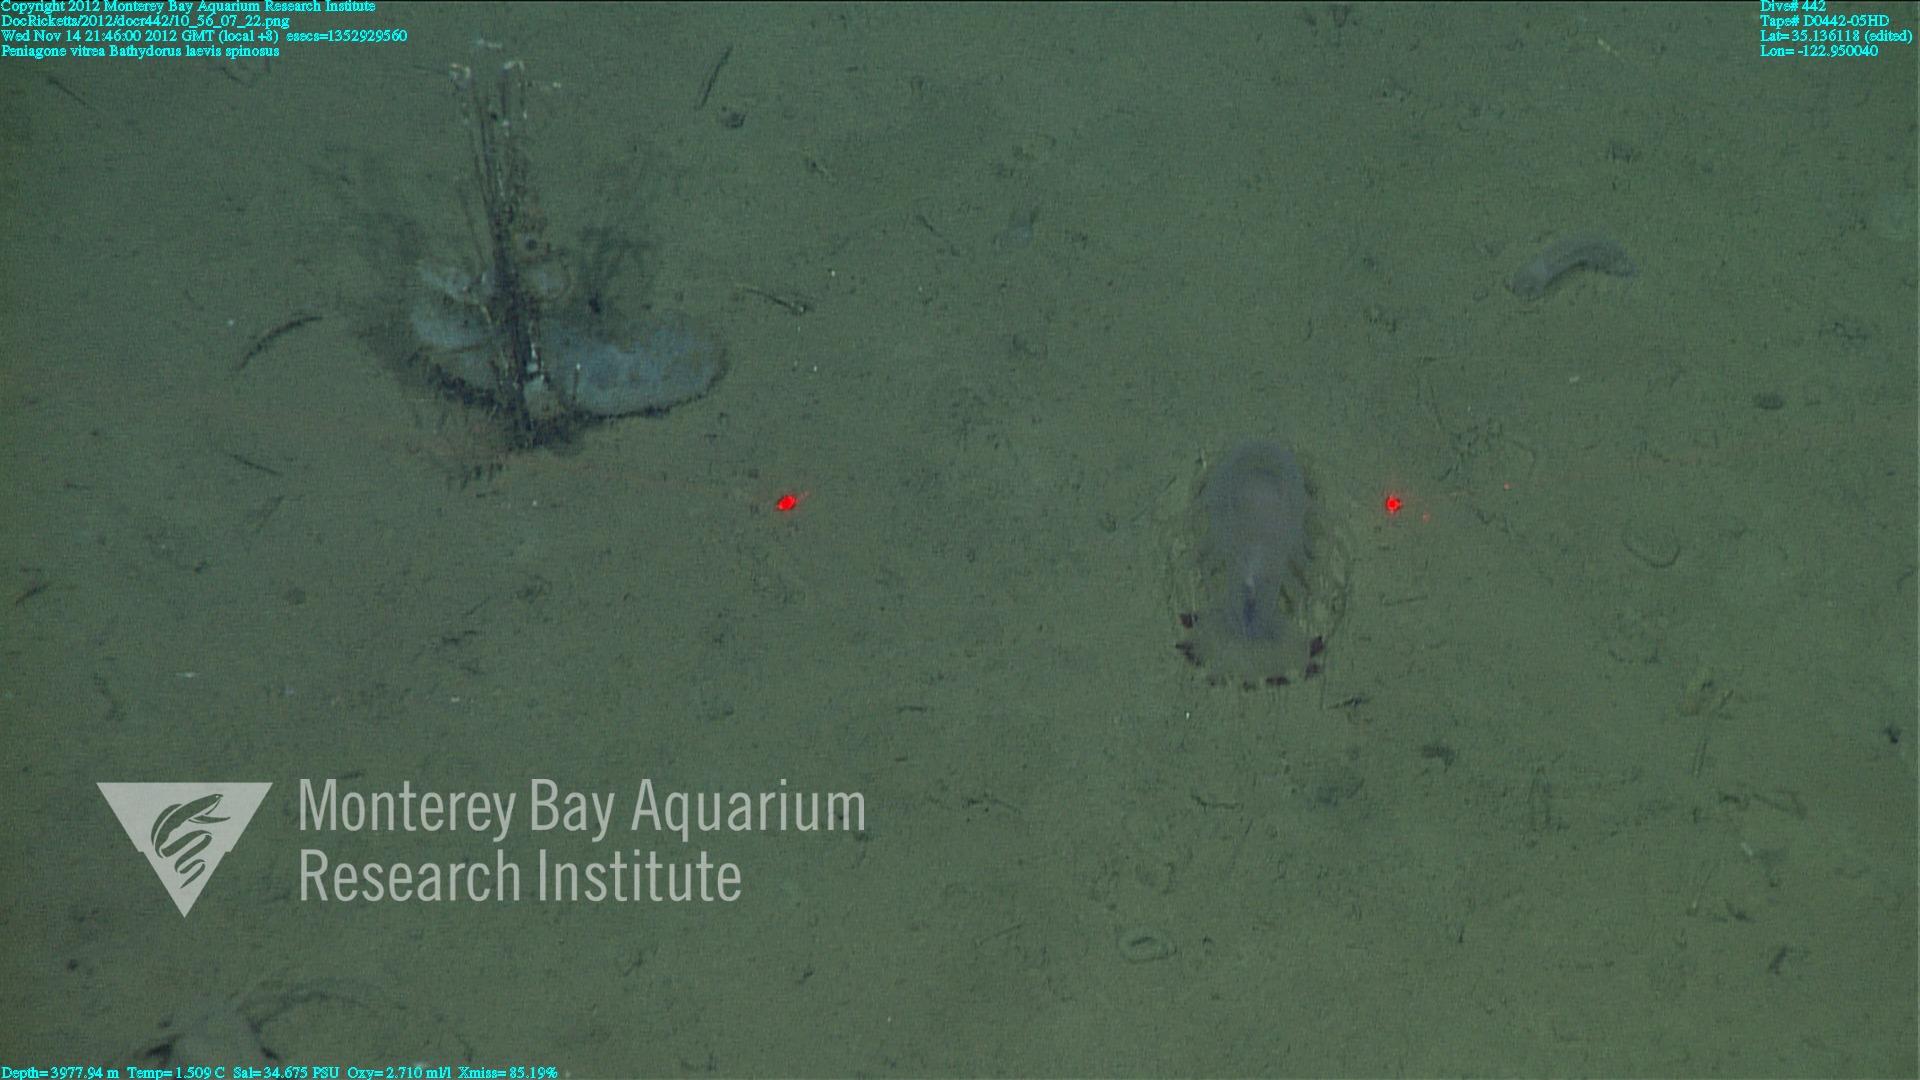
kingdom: Animalia
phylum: Porifera
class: Hexactinellida
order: Lyssacinosida
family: Rossellidae
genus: Bathydorus
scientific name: Bathydorus spinosus
